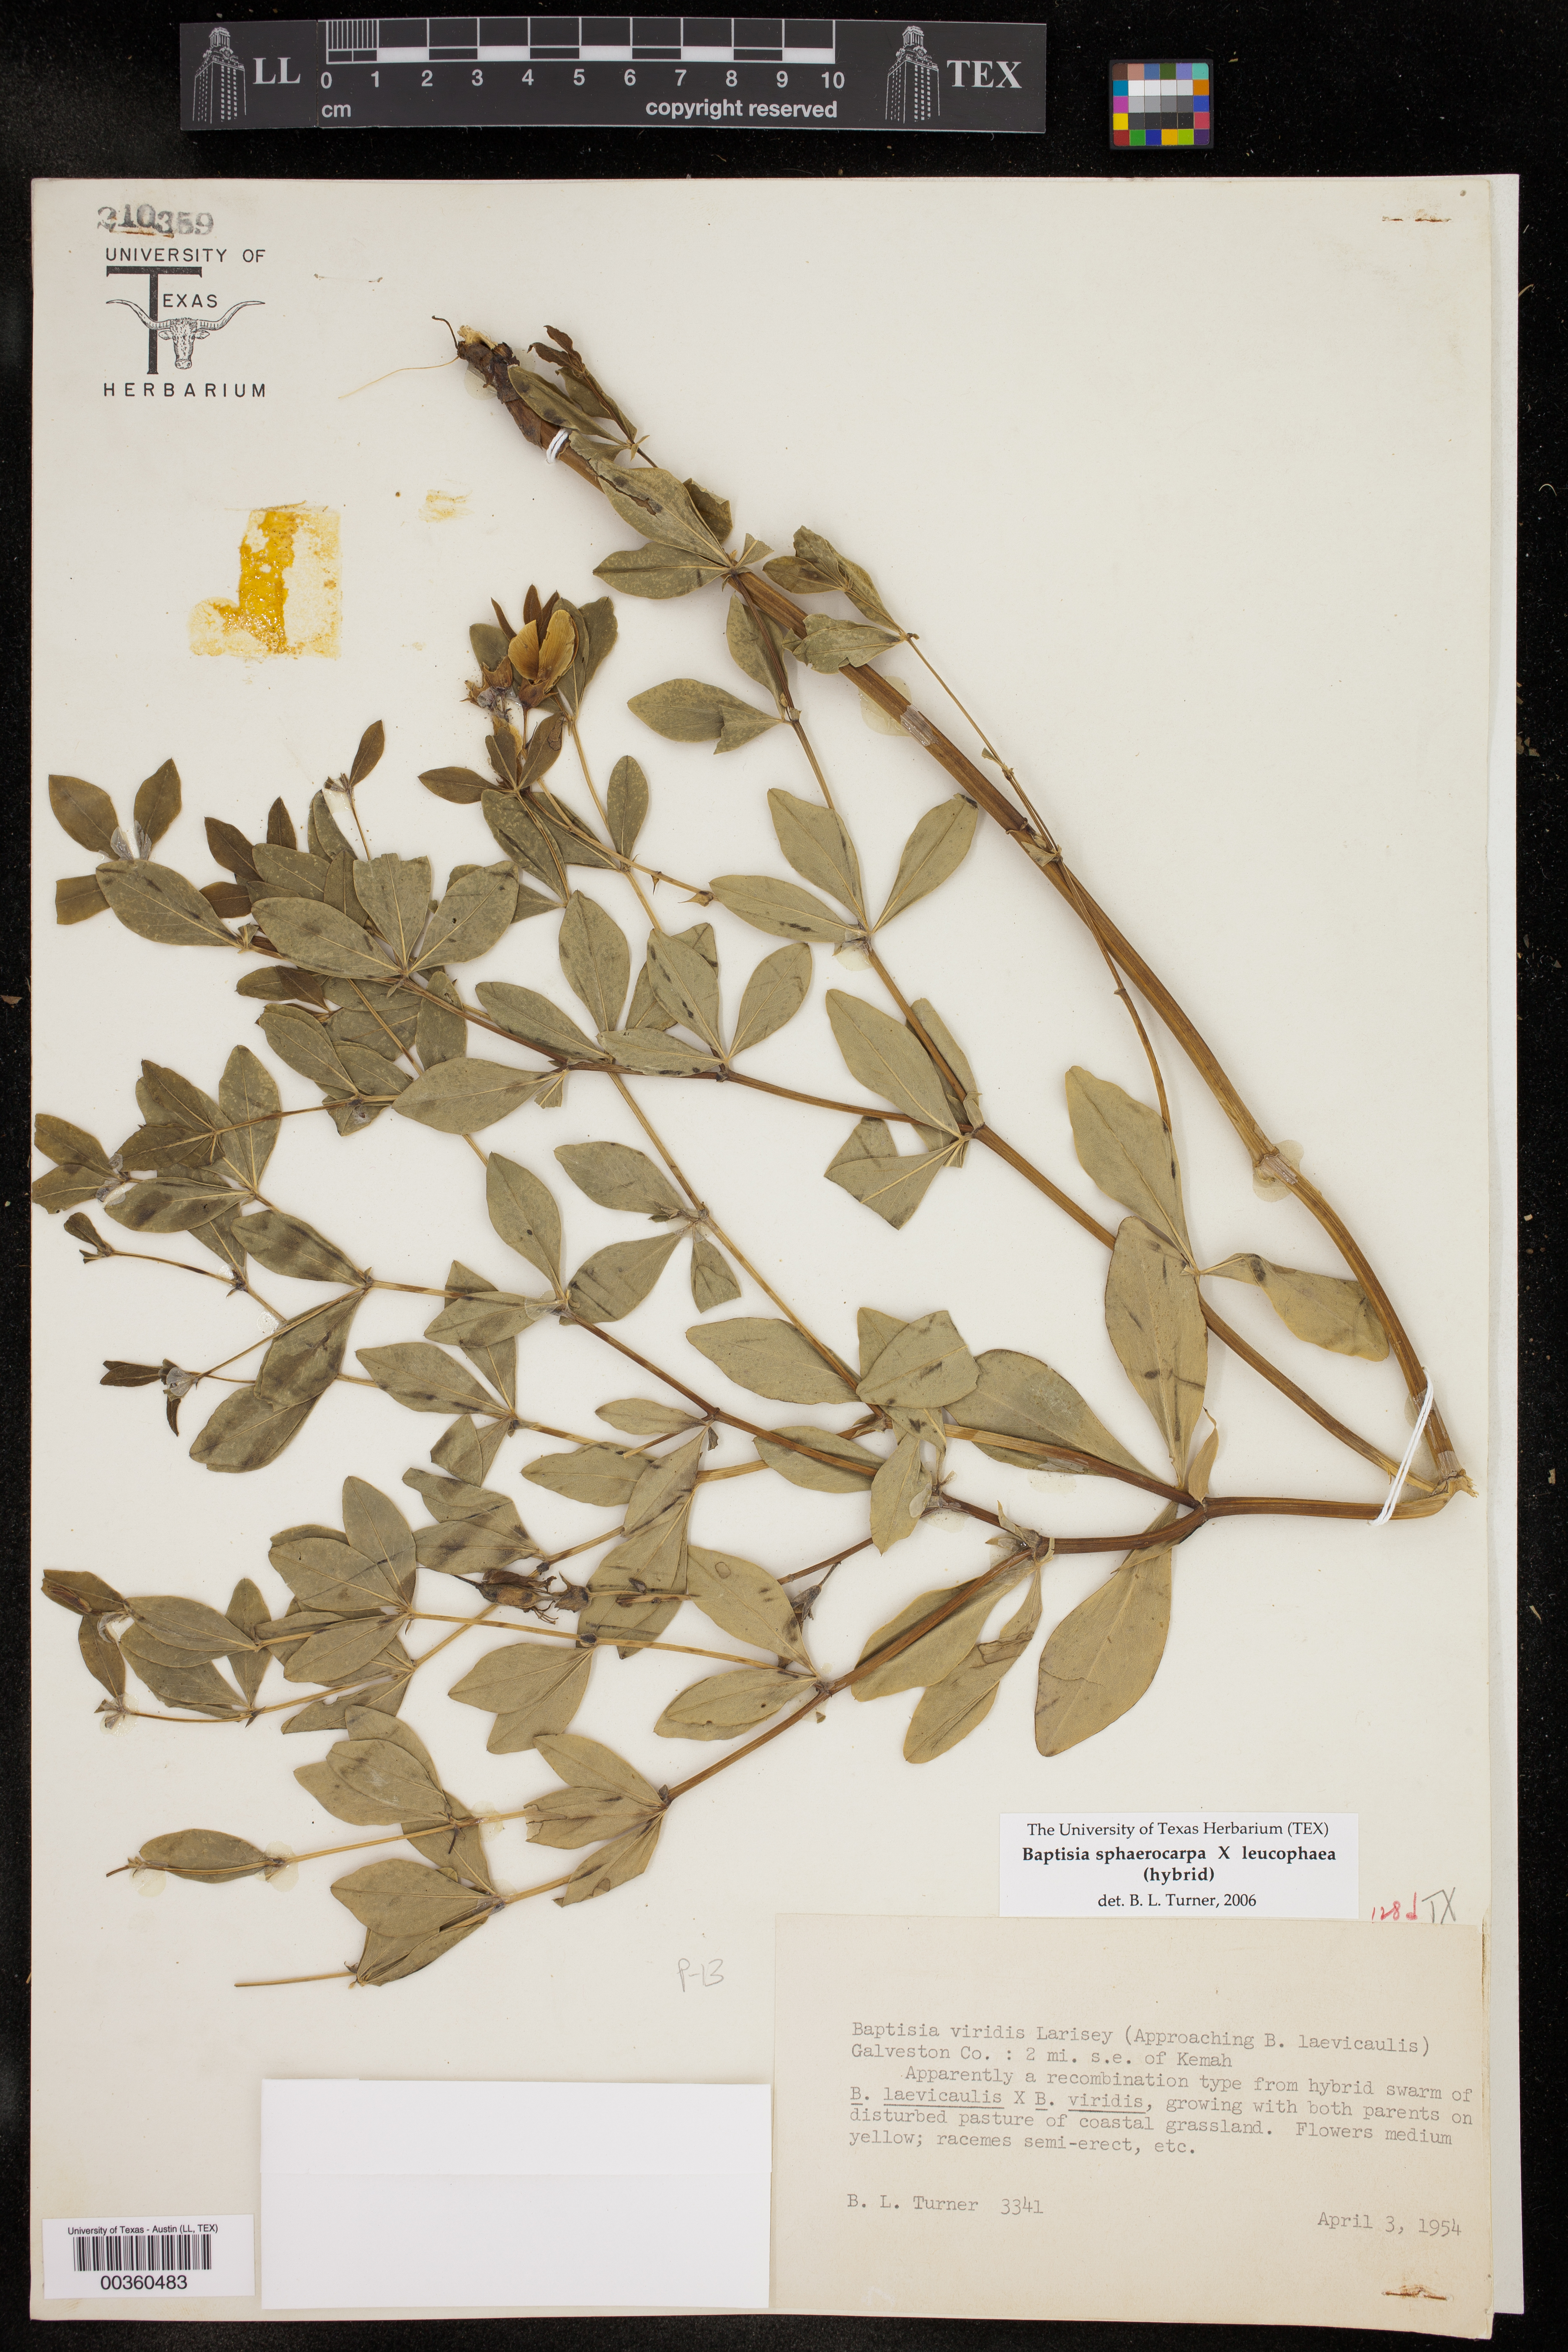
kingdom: Plantae
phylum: Tracheophyta
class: Magnoliopsida
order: Fabales
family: Fabaceae
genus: Baptisia
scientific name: Baptisia
